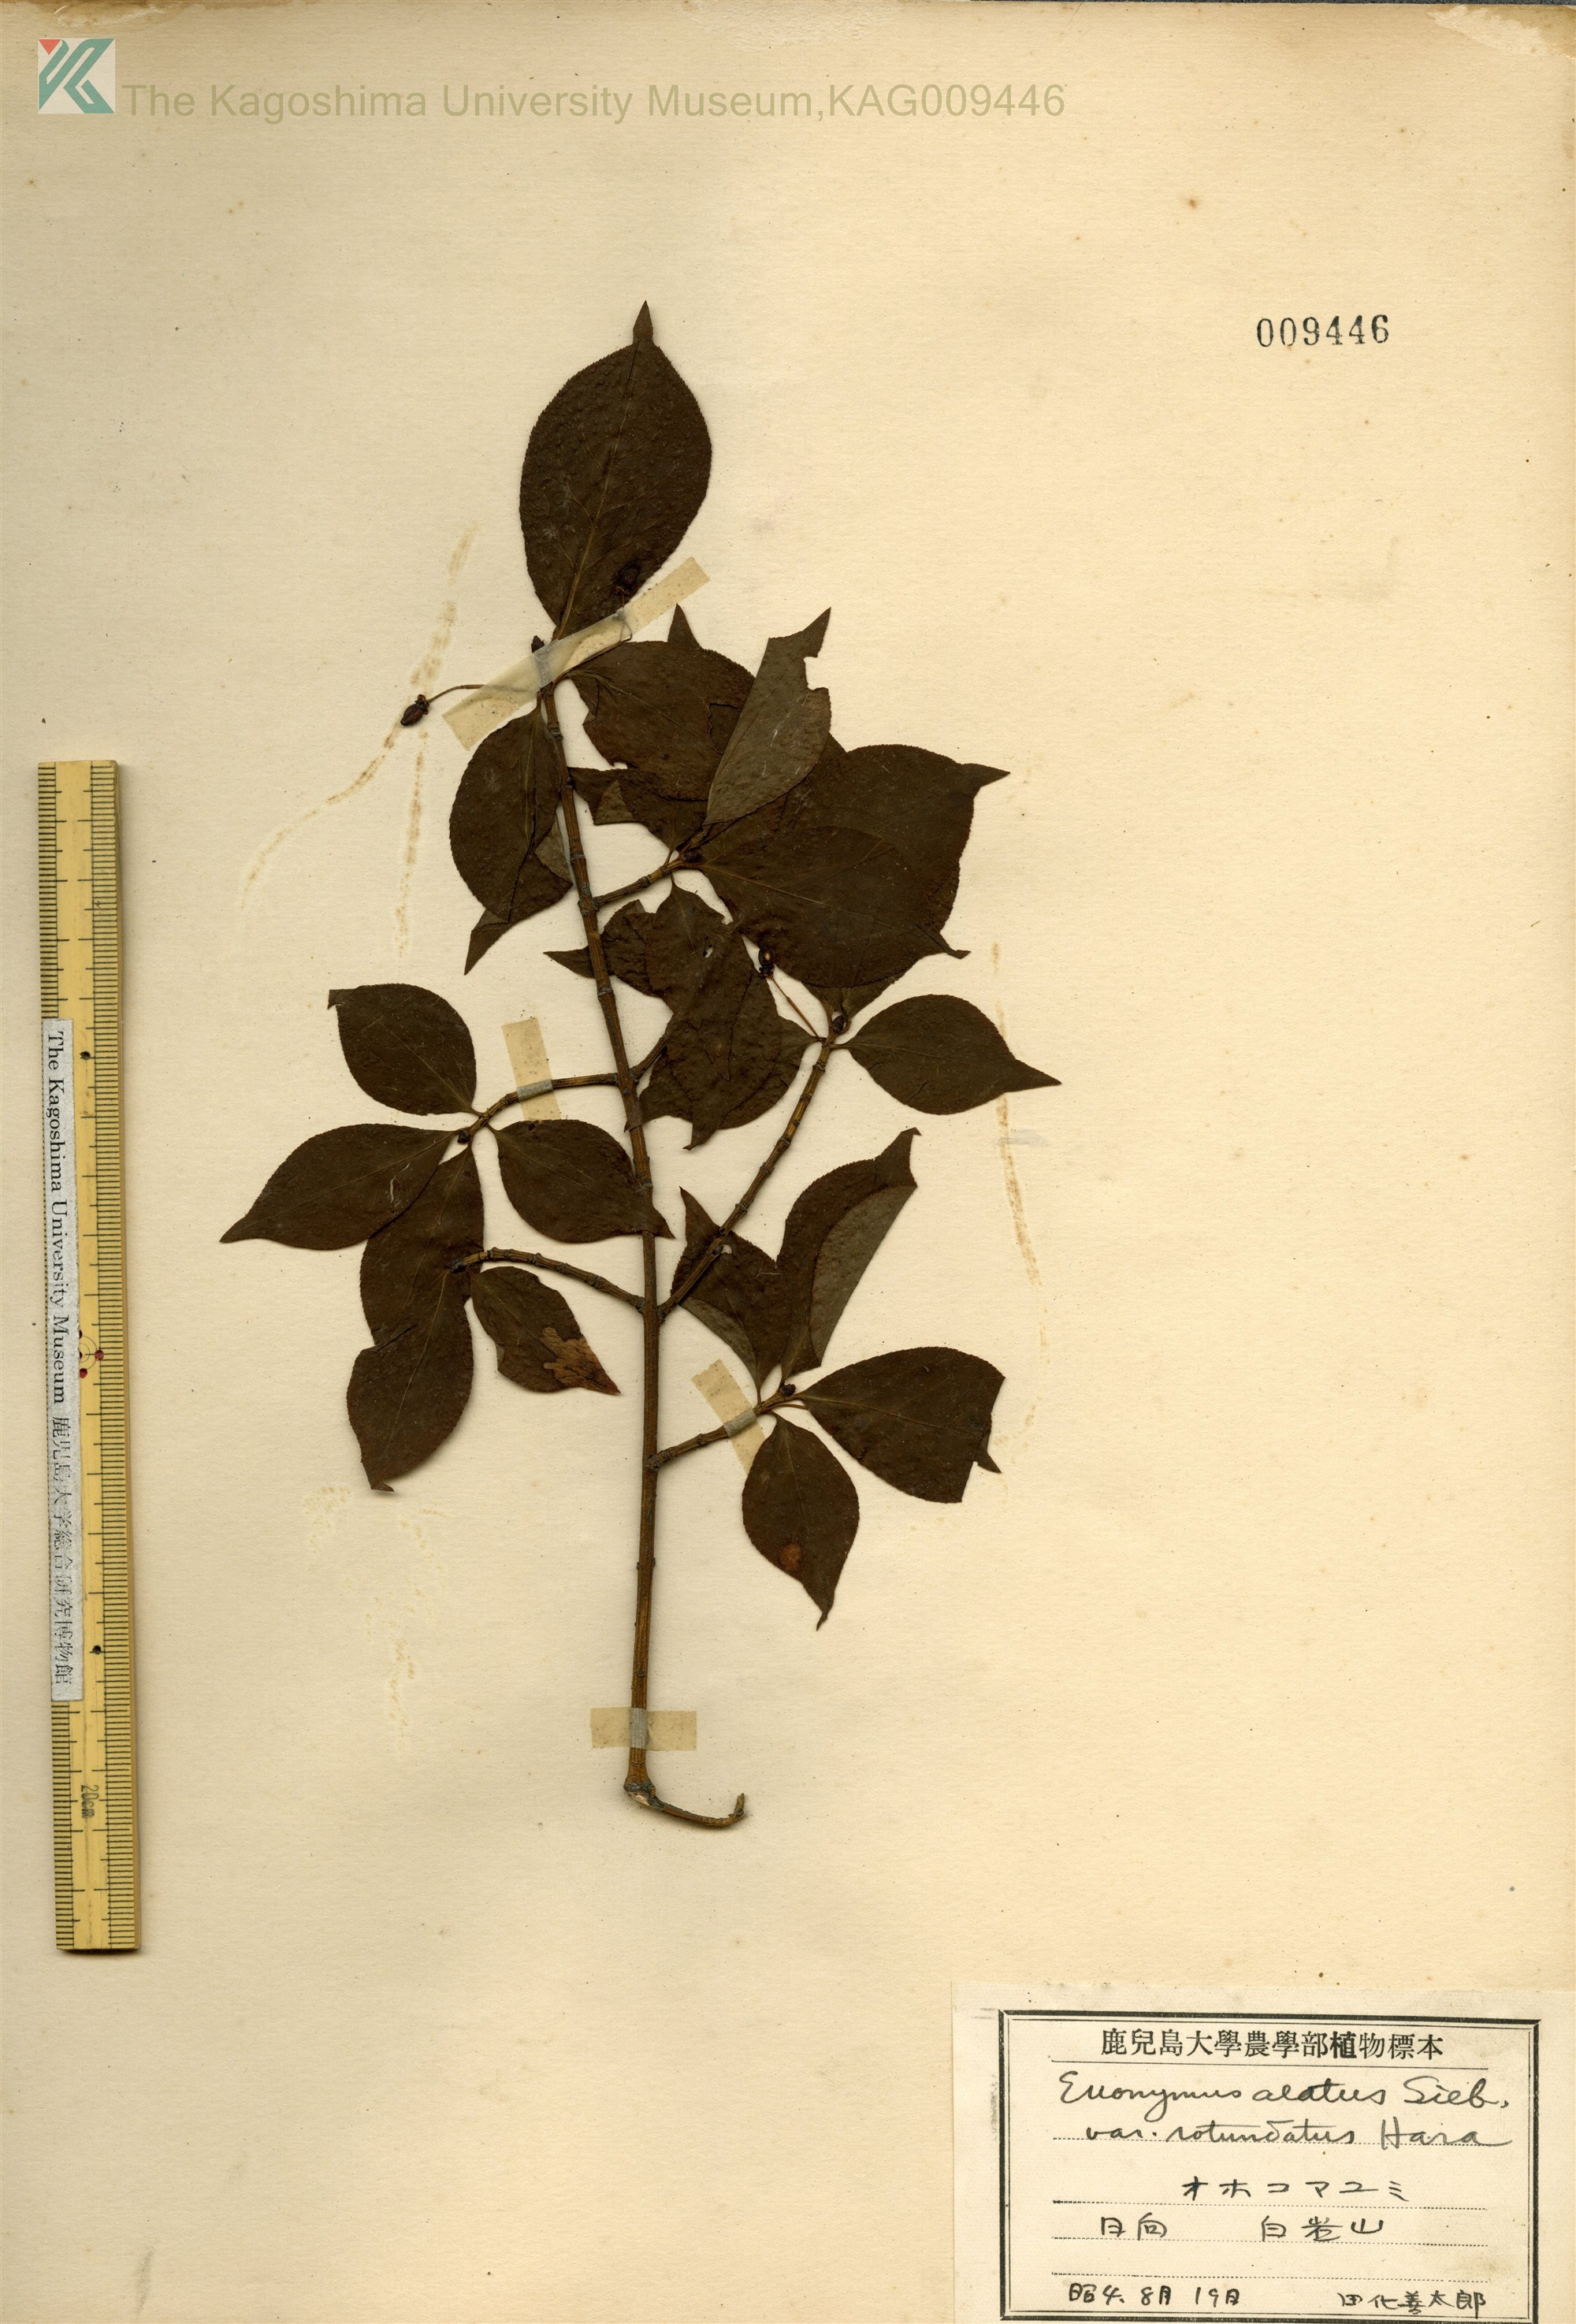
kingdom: Plantae
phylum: Tracheophyta
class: Magnoliopsida
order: Celastrales
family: Celastraceae
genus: Euonymus
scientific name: Euonymus alatus
